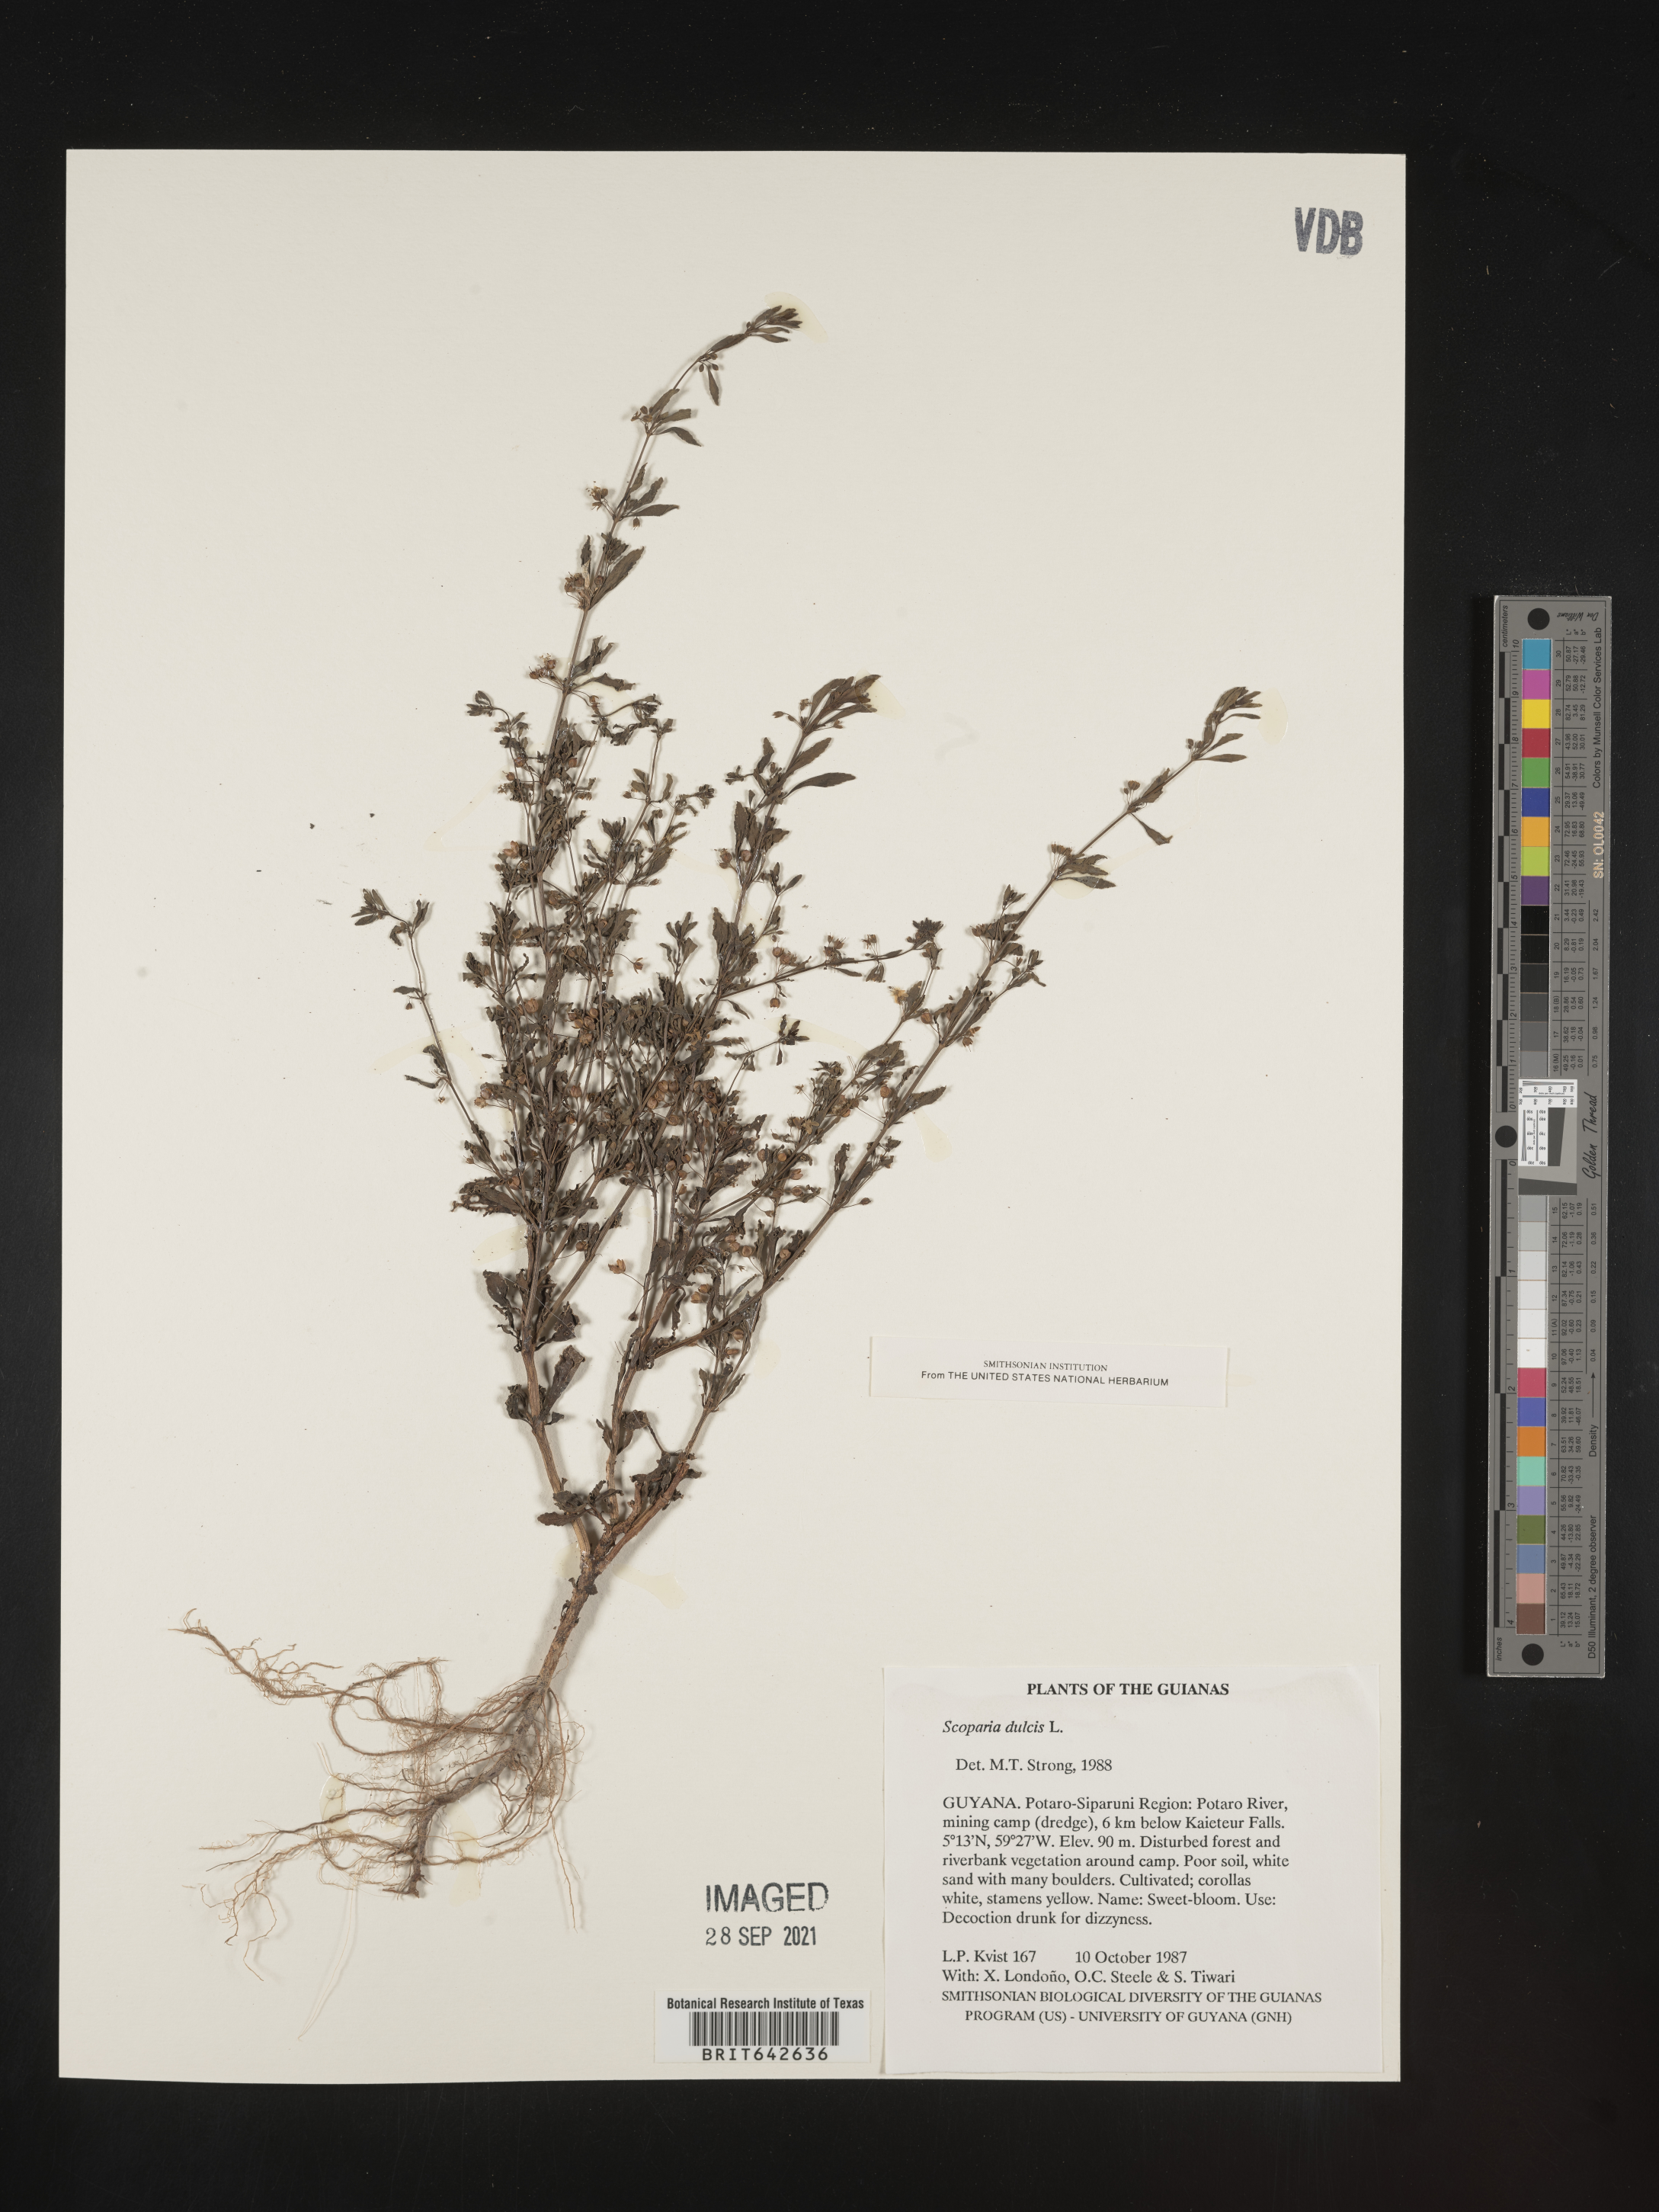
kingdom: Plantae
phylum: Tracheophyta
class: Magnoliopsida
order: Lamiales
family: Plantaginaceae
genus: Scoparia
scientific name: Scoparia
